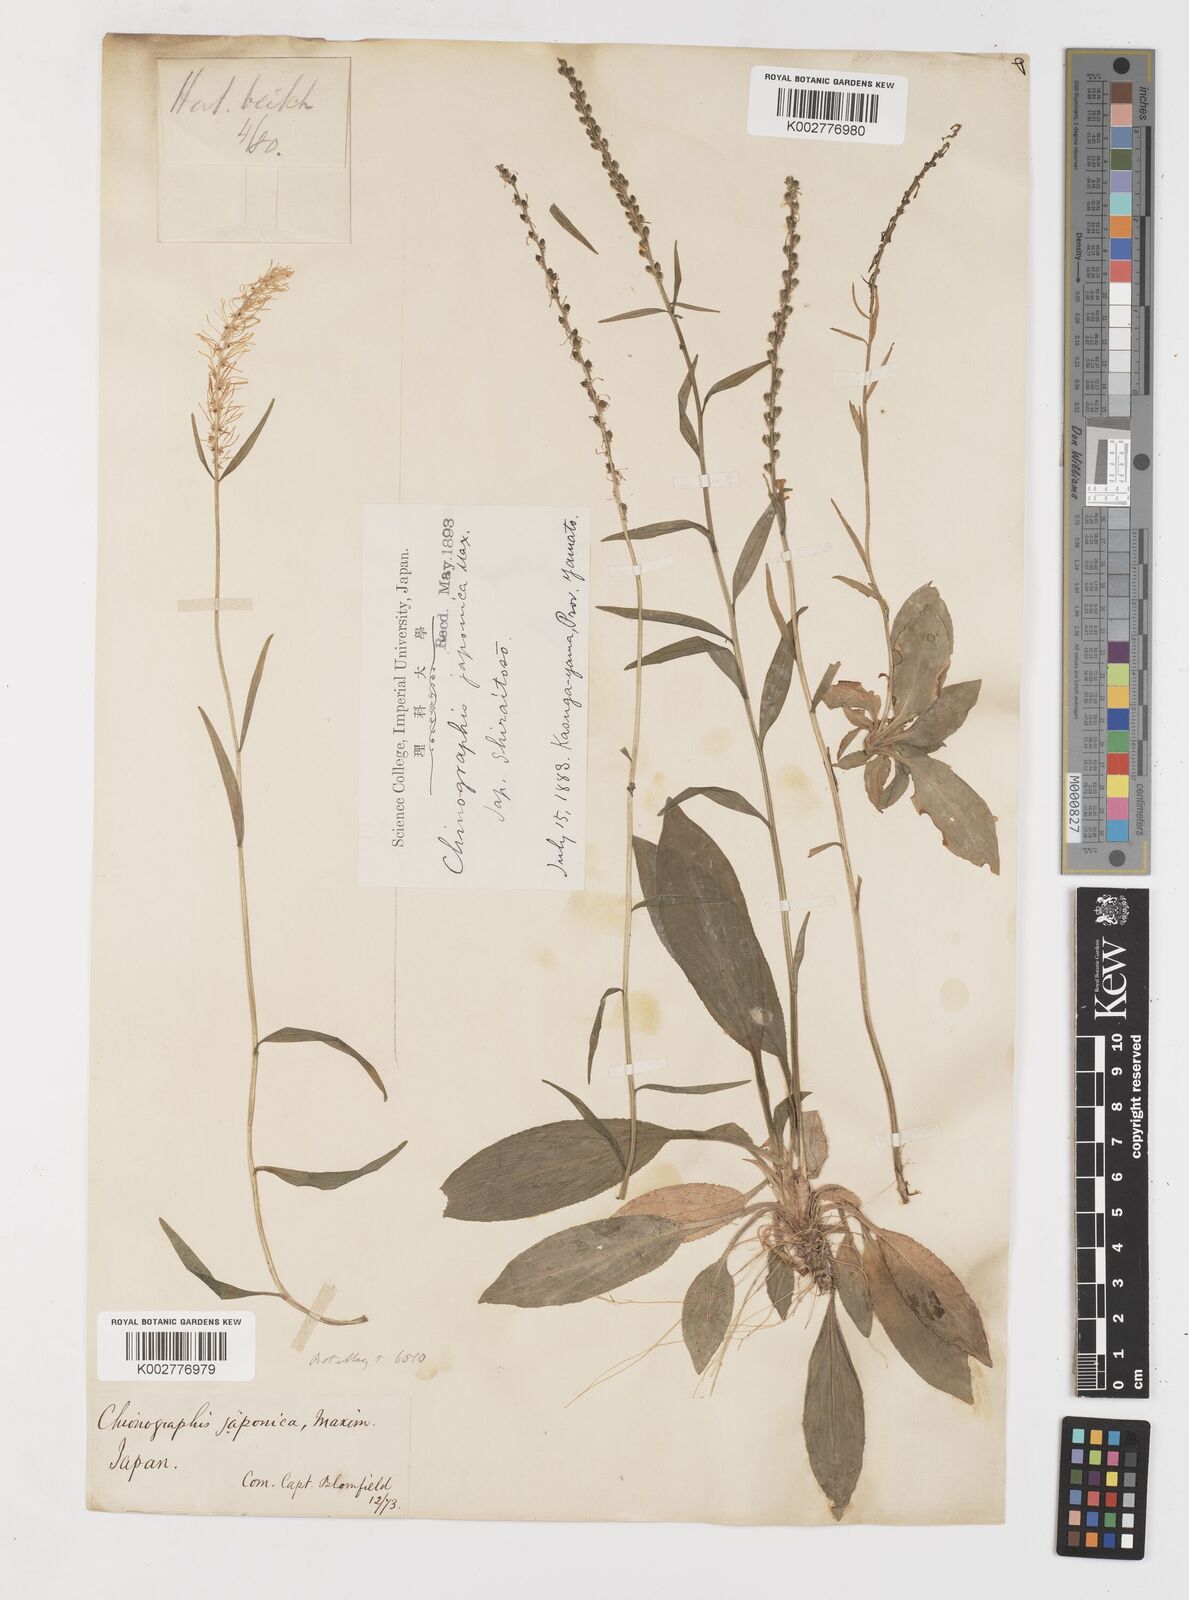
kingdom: Plantae
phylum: Tracheophyta
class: Liliopsida
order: Liliales
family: Melanthiaceae
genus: Chamaelirium
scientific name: Chamaelirium japonicum
